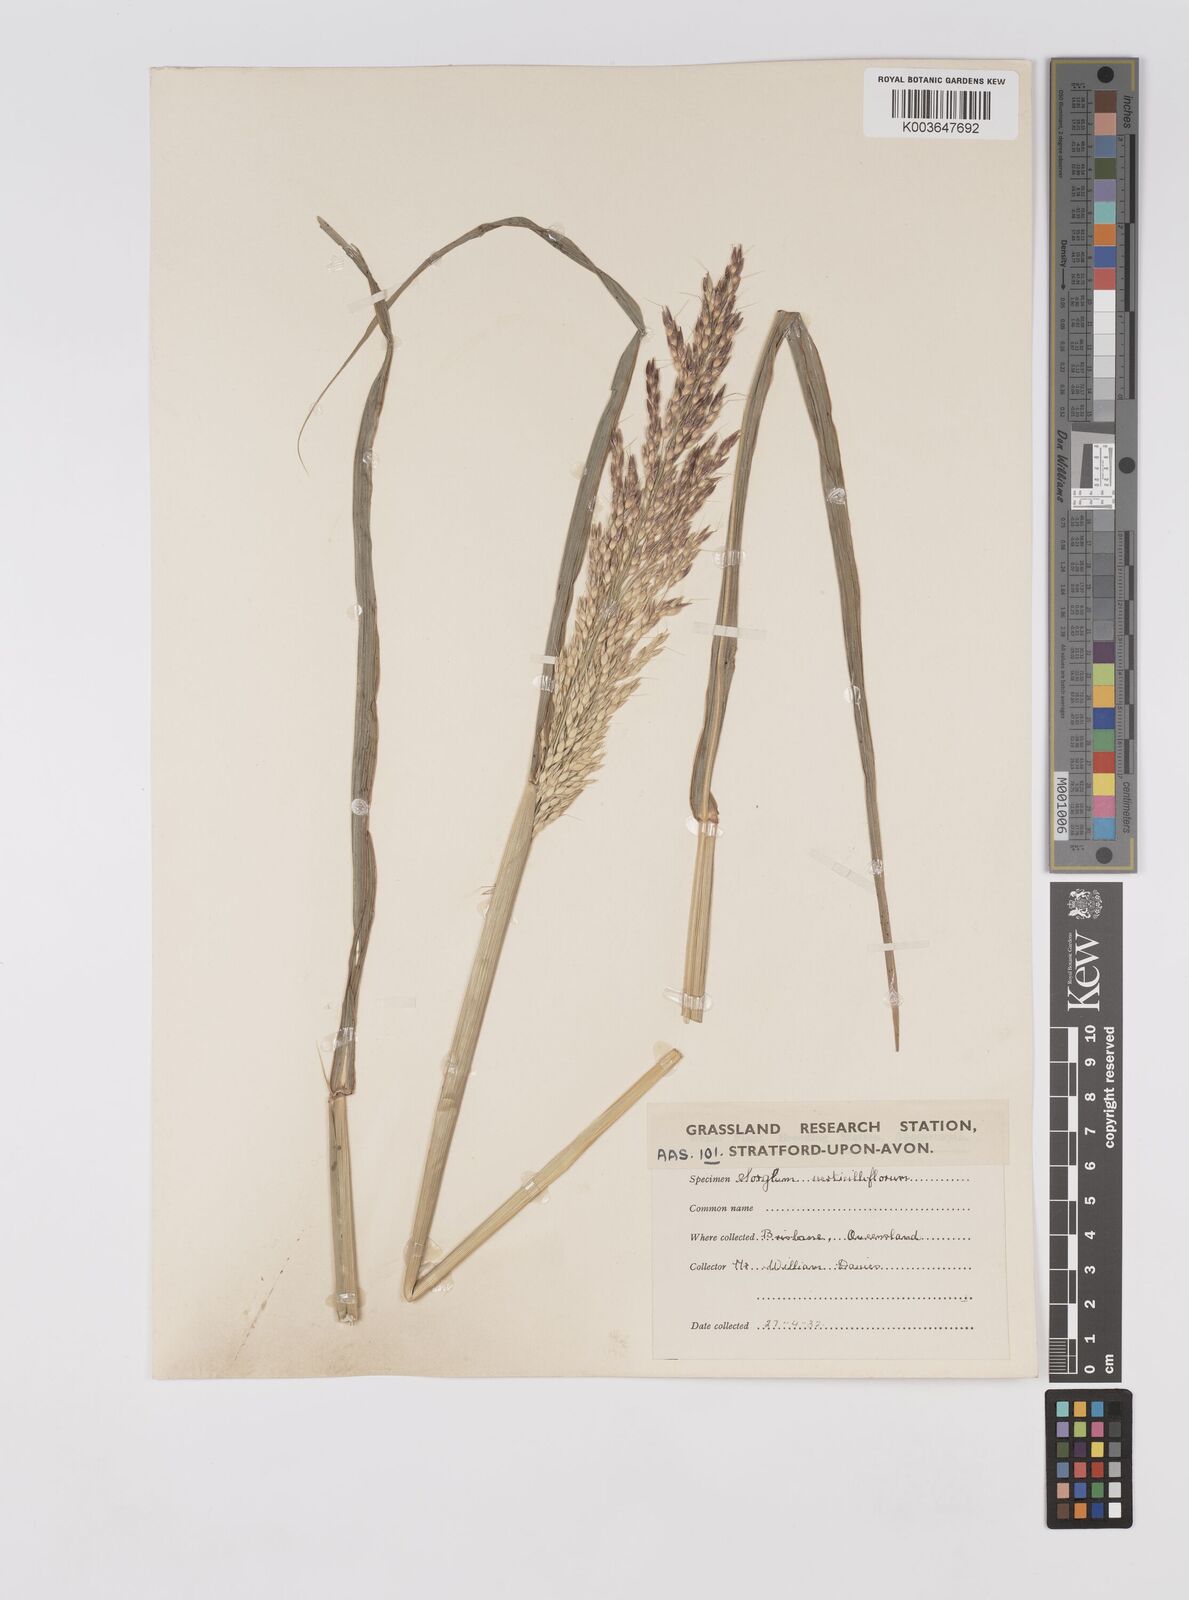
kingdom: Plantae
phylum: Tracheophyta
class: Liliopsida
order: Poales
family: Poaceae
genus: Sorghum
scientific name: Sorghum arundinaceum
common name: Sorghum
